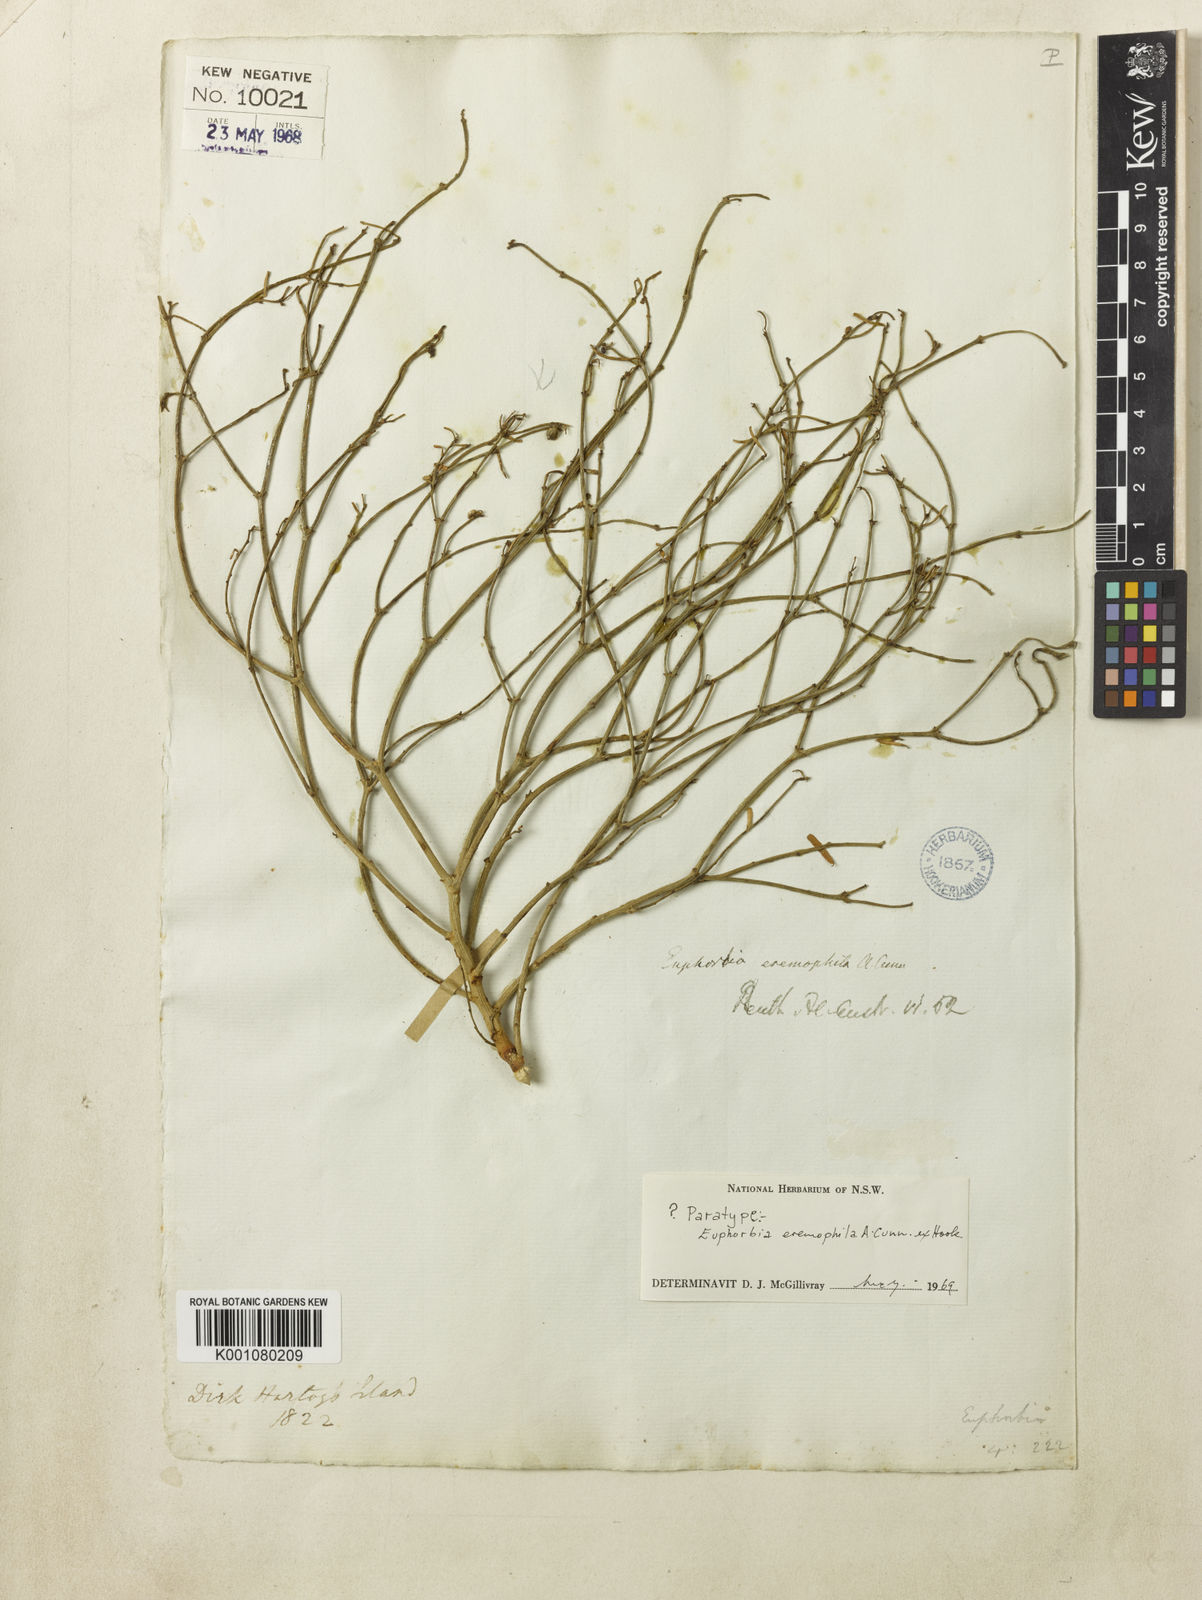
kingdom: Plantae
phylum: Tracheophyta
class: Magnoliopsida
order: Malpighiales
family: Euphorbiaceae
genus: Euphorbia
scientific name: Euphorbia
